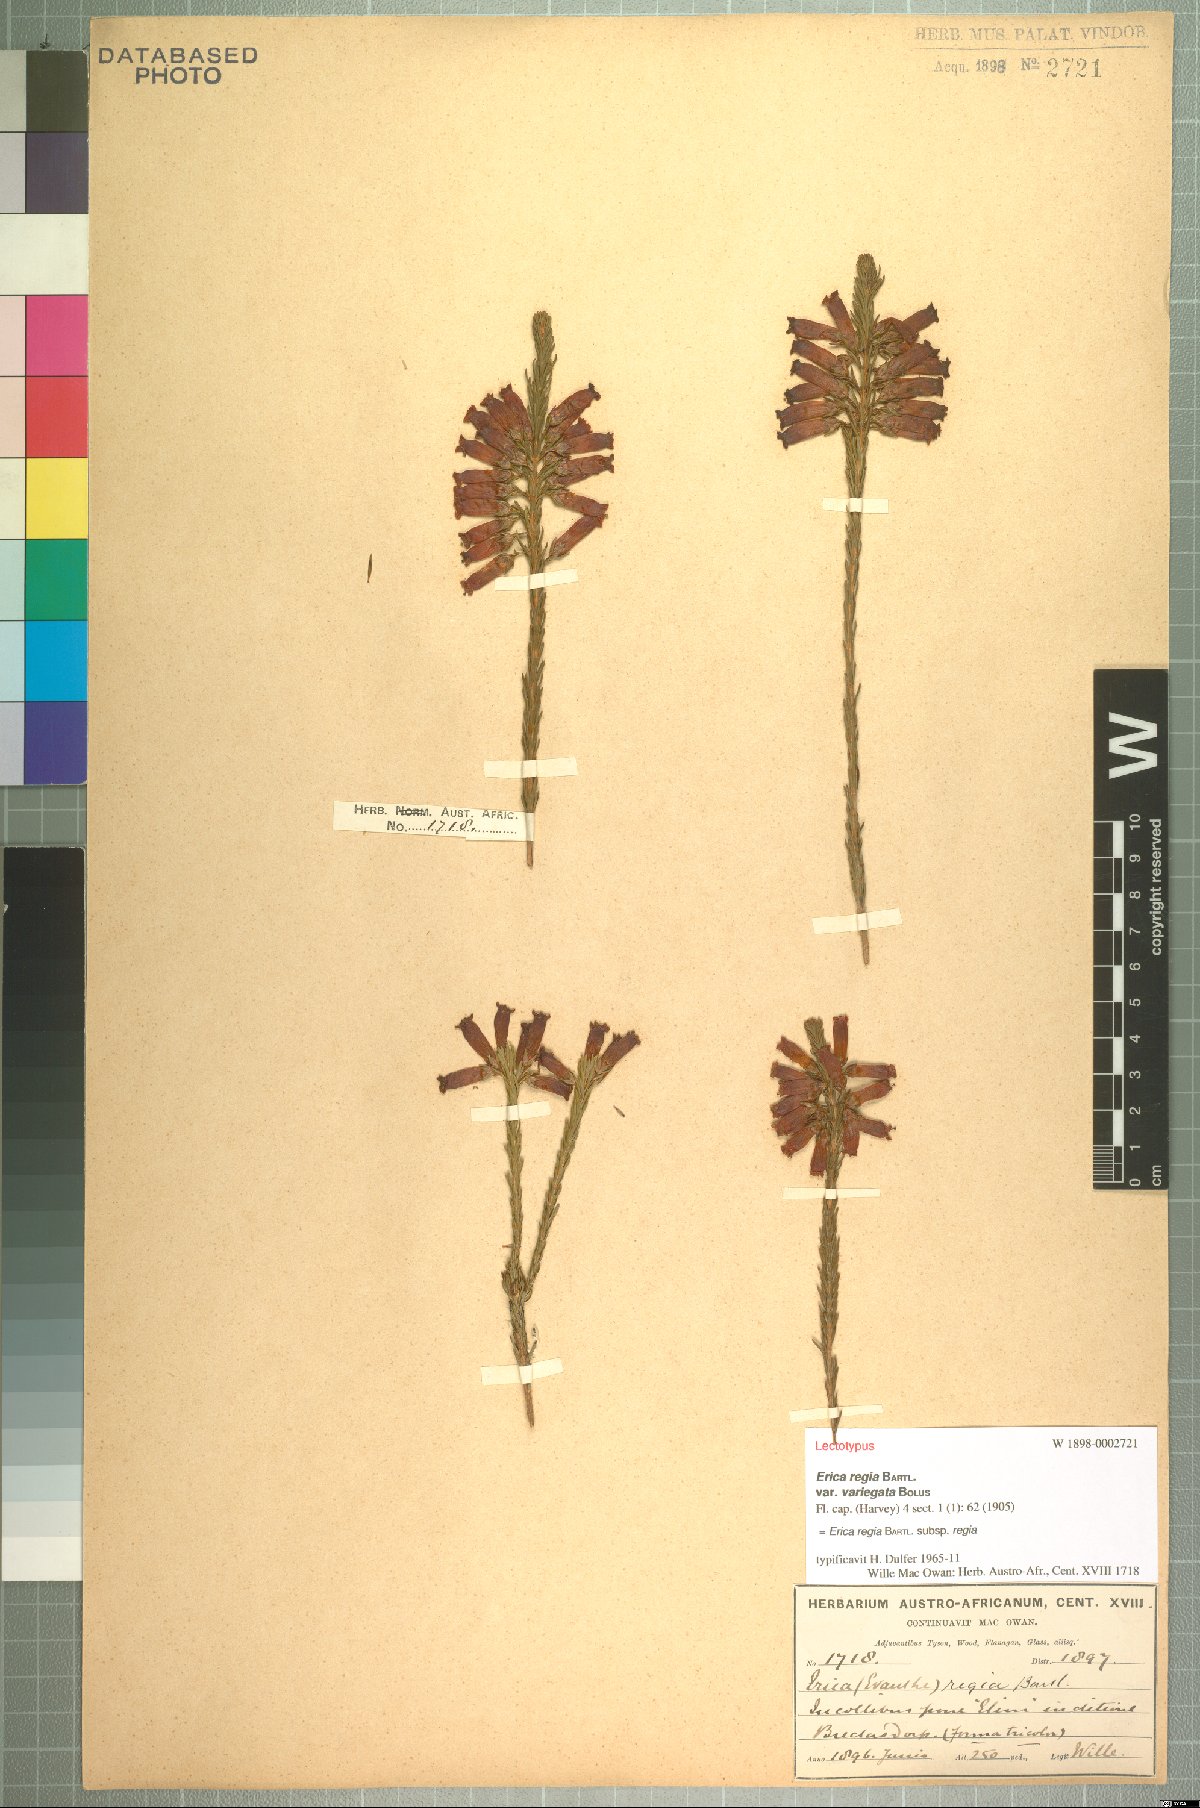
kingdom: Plantae
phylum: Tracheophyta
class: Magnoliopsida
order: Ericales
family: Ericaceae
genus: Erica
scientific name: Erica regia
